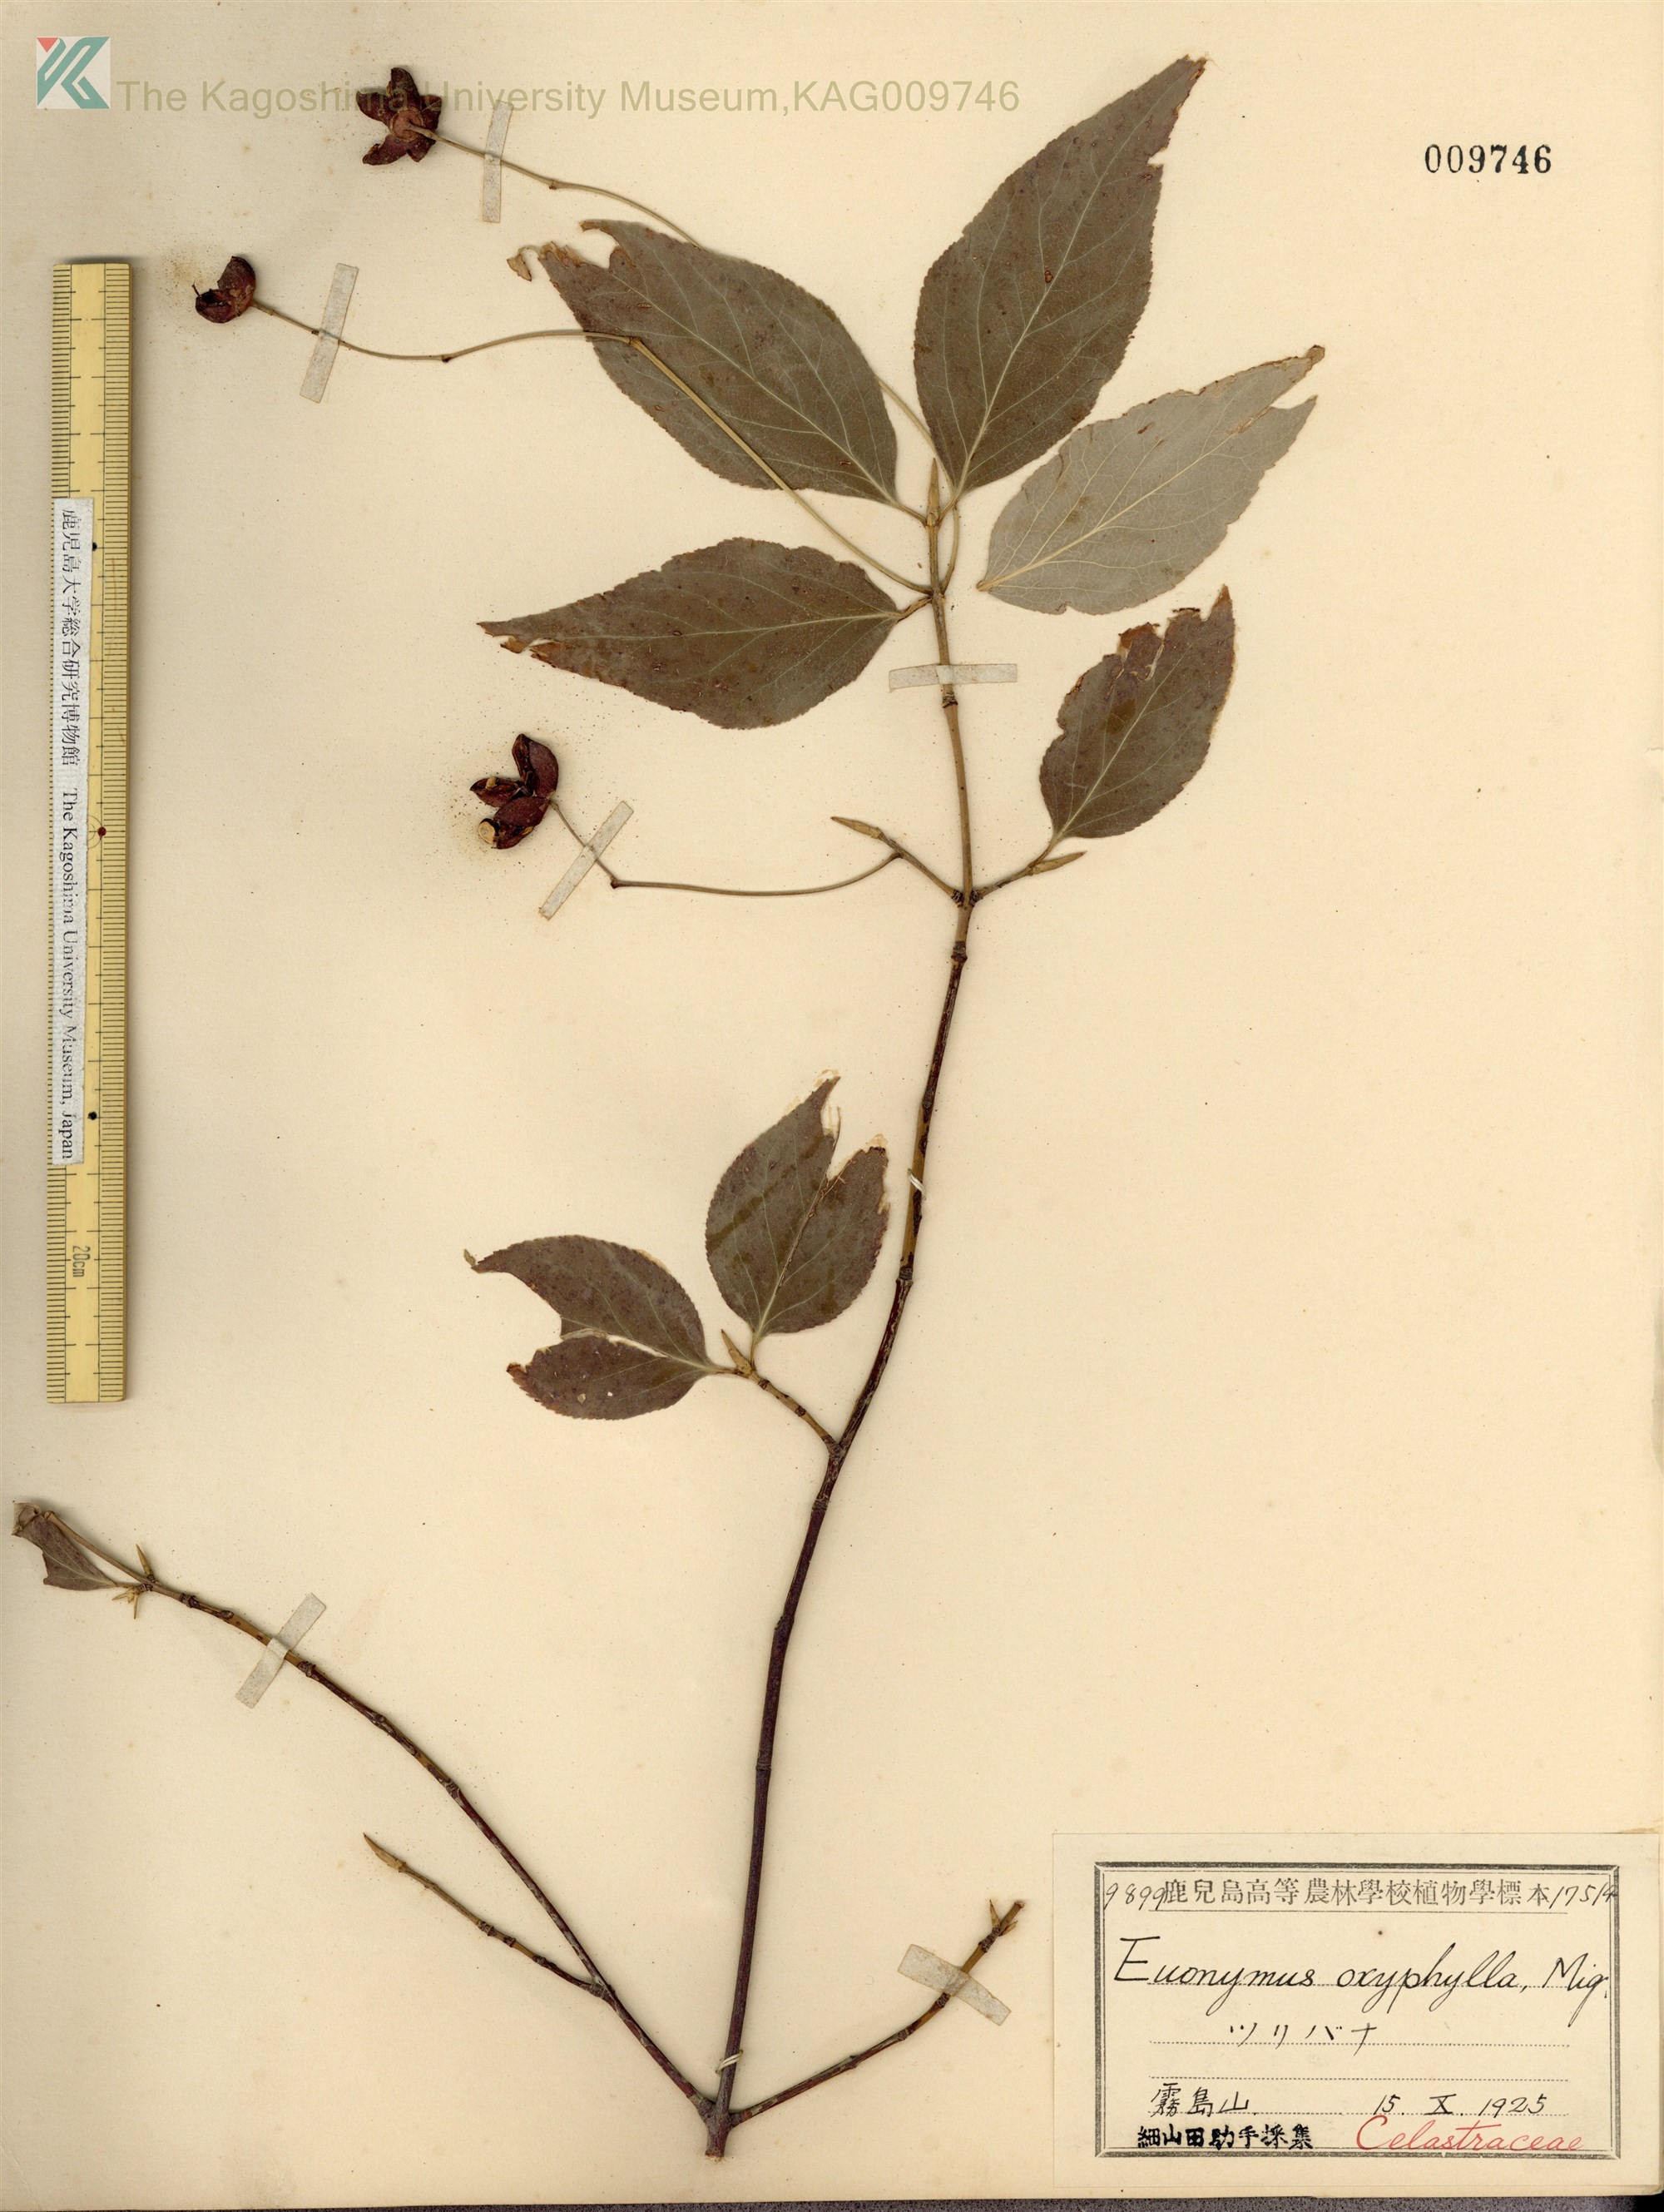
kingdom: Plantae
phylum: Tracheophyta
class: Magnoliopsida
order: Celastrales
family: Celastraceae
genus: Euonymus
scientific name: Euonymus oxyphyllus
